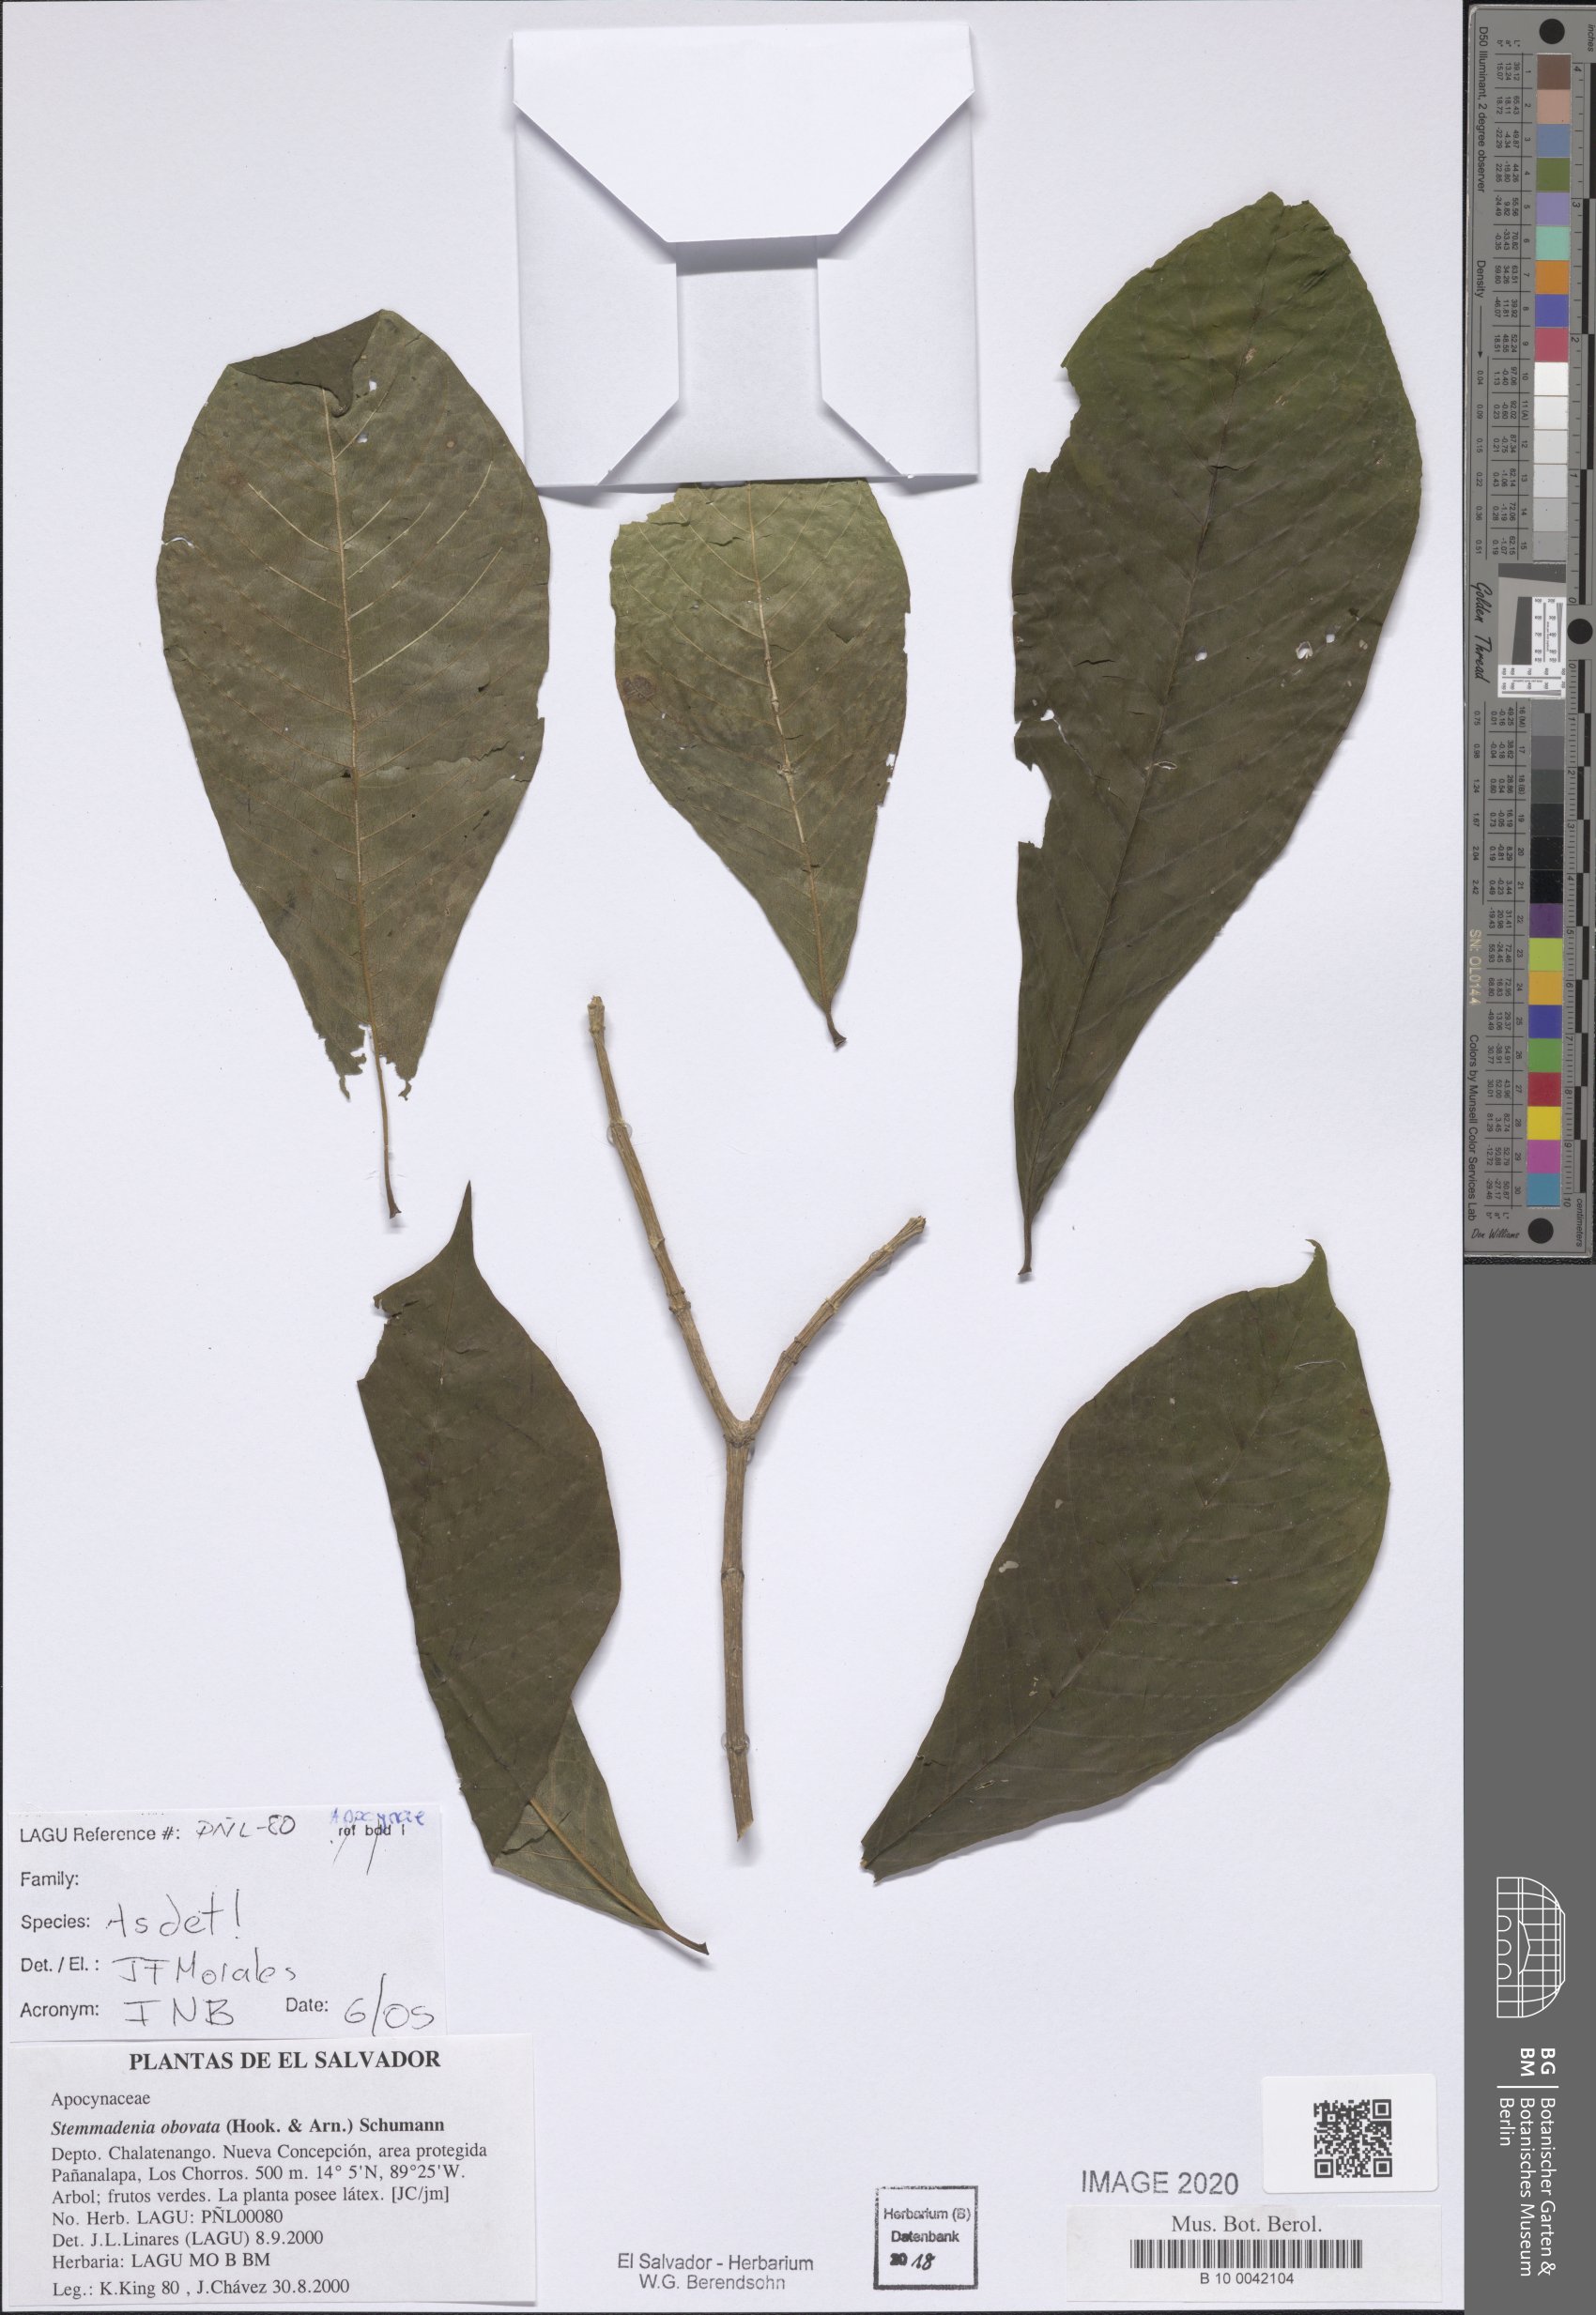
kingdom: Plantae
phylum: Tracheophyta
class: Magnoliopsida
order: Gentianales
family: Apocynaceae
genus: Tabernaemontana
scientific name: Tabernaemontana glabra
